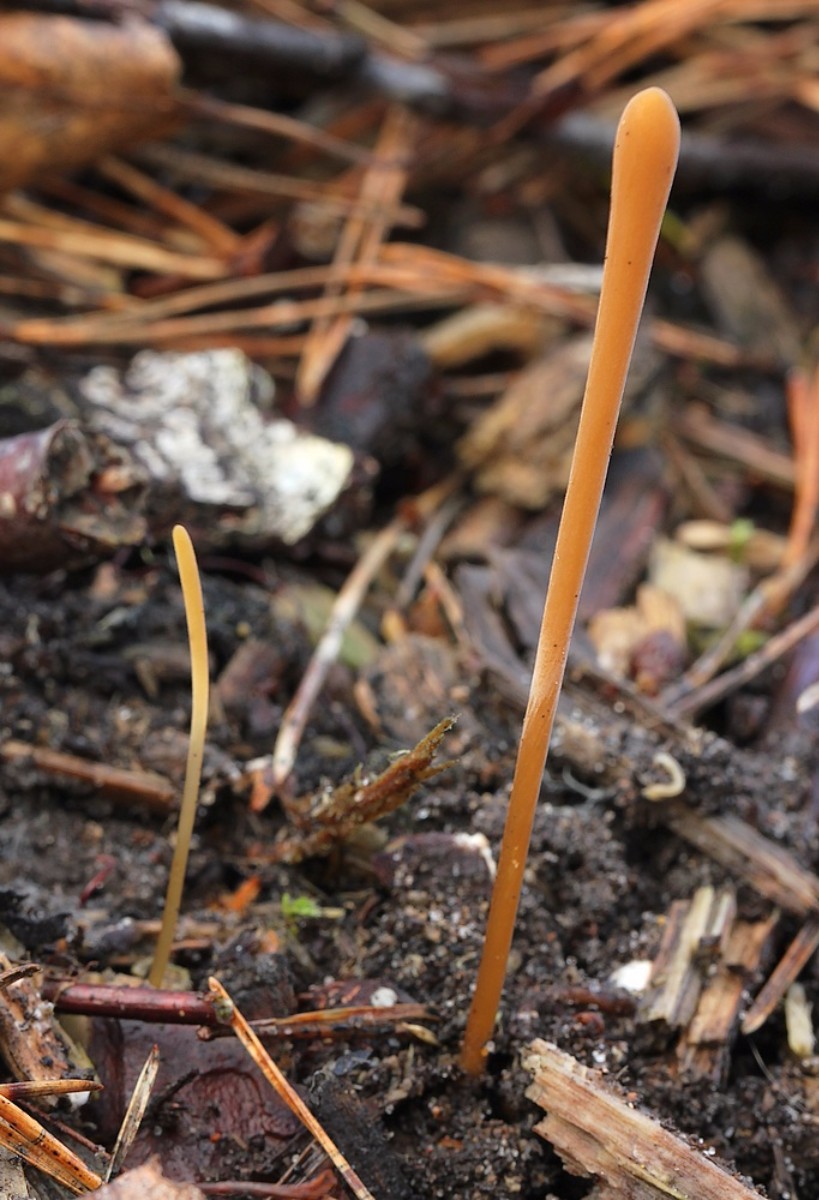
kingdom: Fungi
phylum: Basidiomycota
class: Agaricomycetes
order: Agaricales
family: Typhulaceae
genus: Typhula
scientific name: Typhula fistulosa
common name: pibet rørkølle
